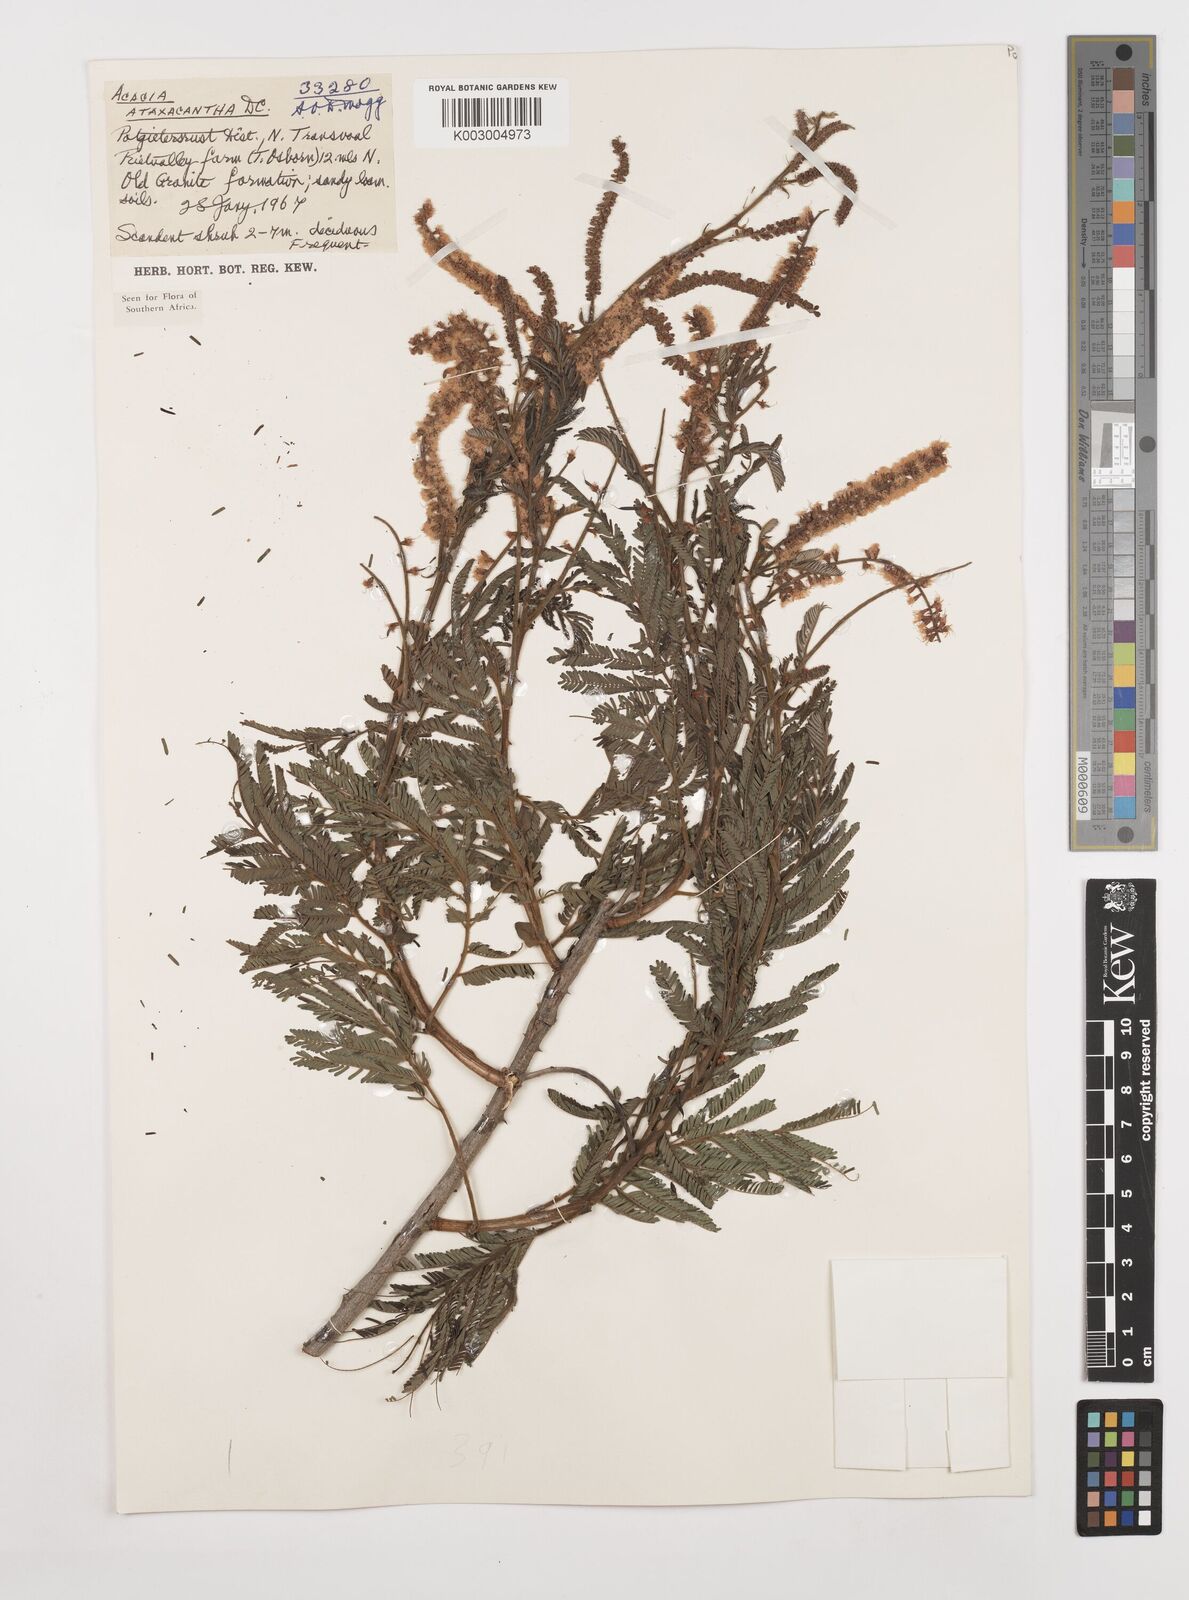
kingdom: Plantae
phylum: Tracheophyta
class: Magnoliopsida
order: Fabales
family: Fabaceae
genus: Senegalia
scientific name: Senegalia ataxacantha
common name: Flame acacia
